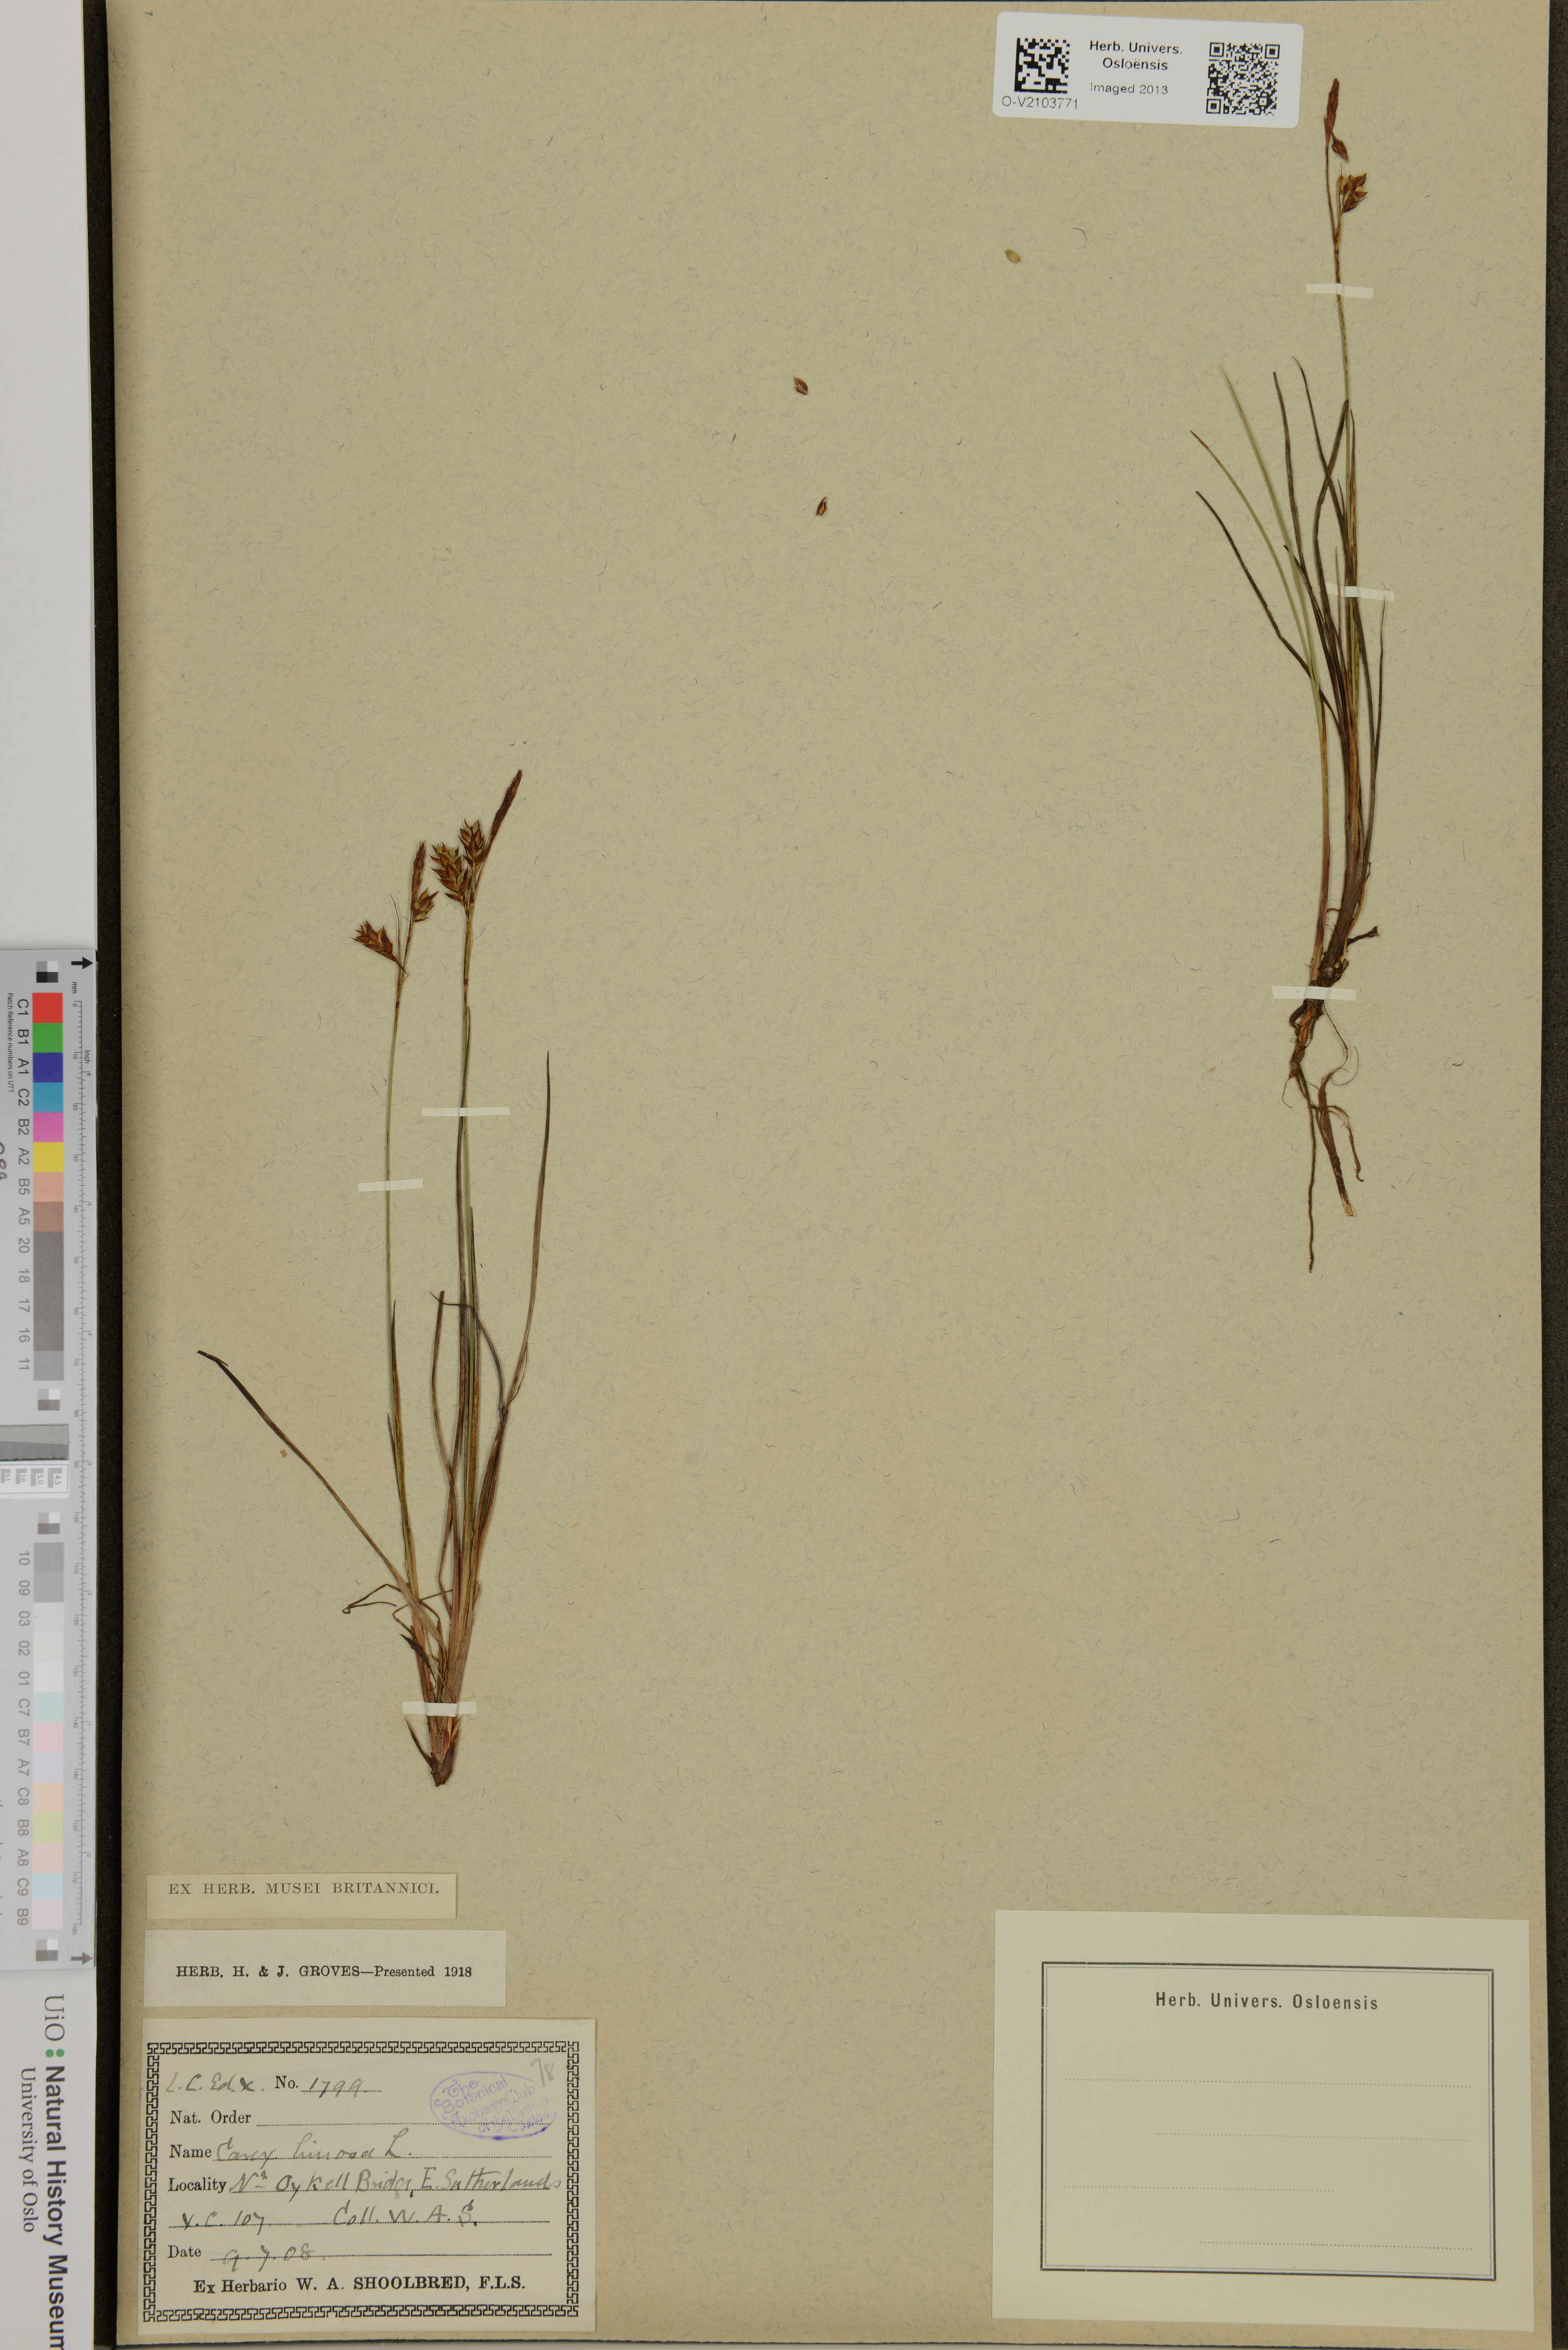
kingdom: Plantae
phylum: Tracheophyta
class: Liliopsida
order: Poales
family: Cyperaceae
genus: Carex
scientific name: Carex limosa
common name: Bog sedge
